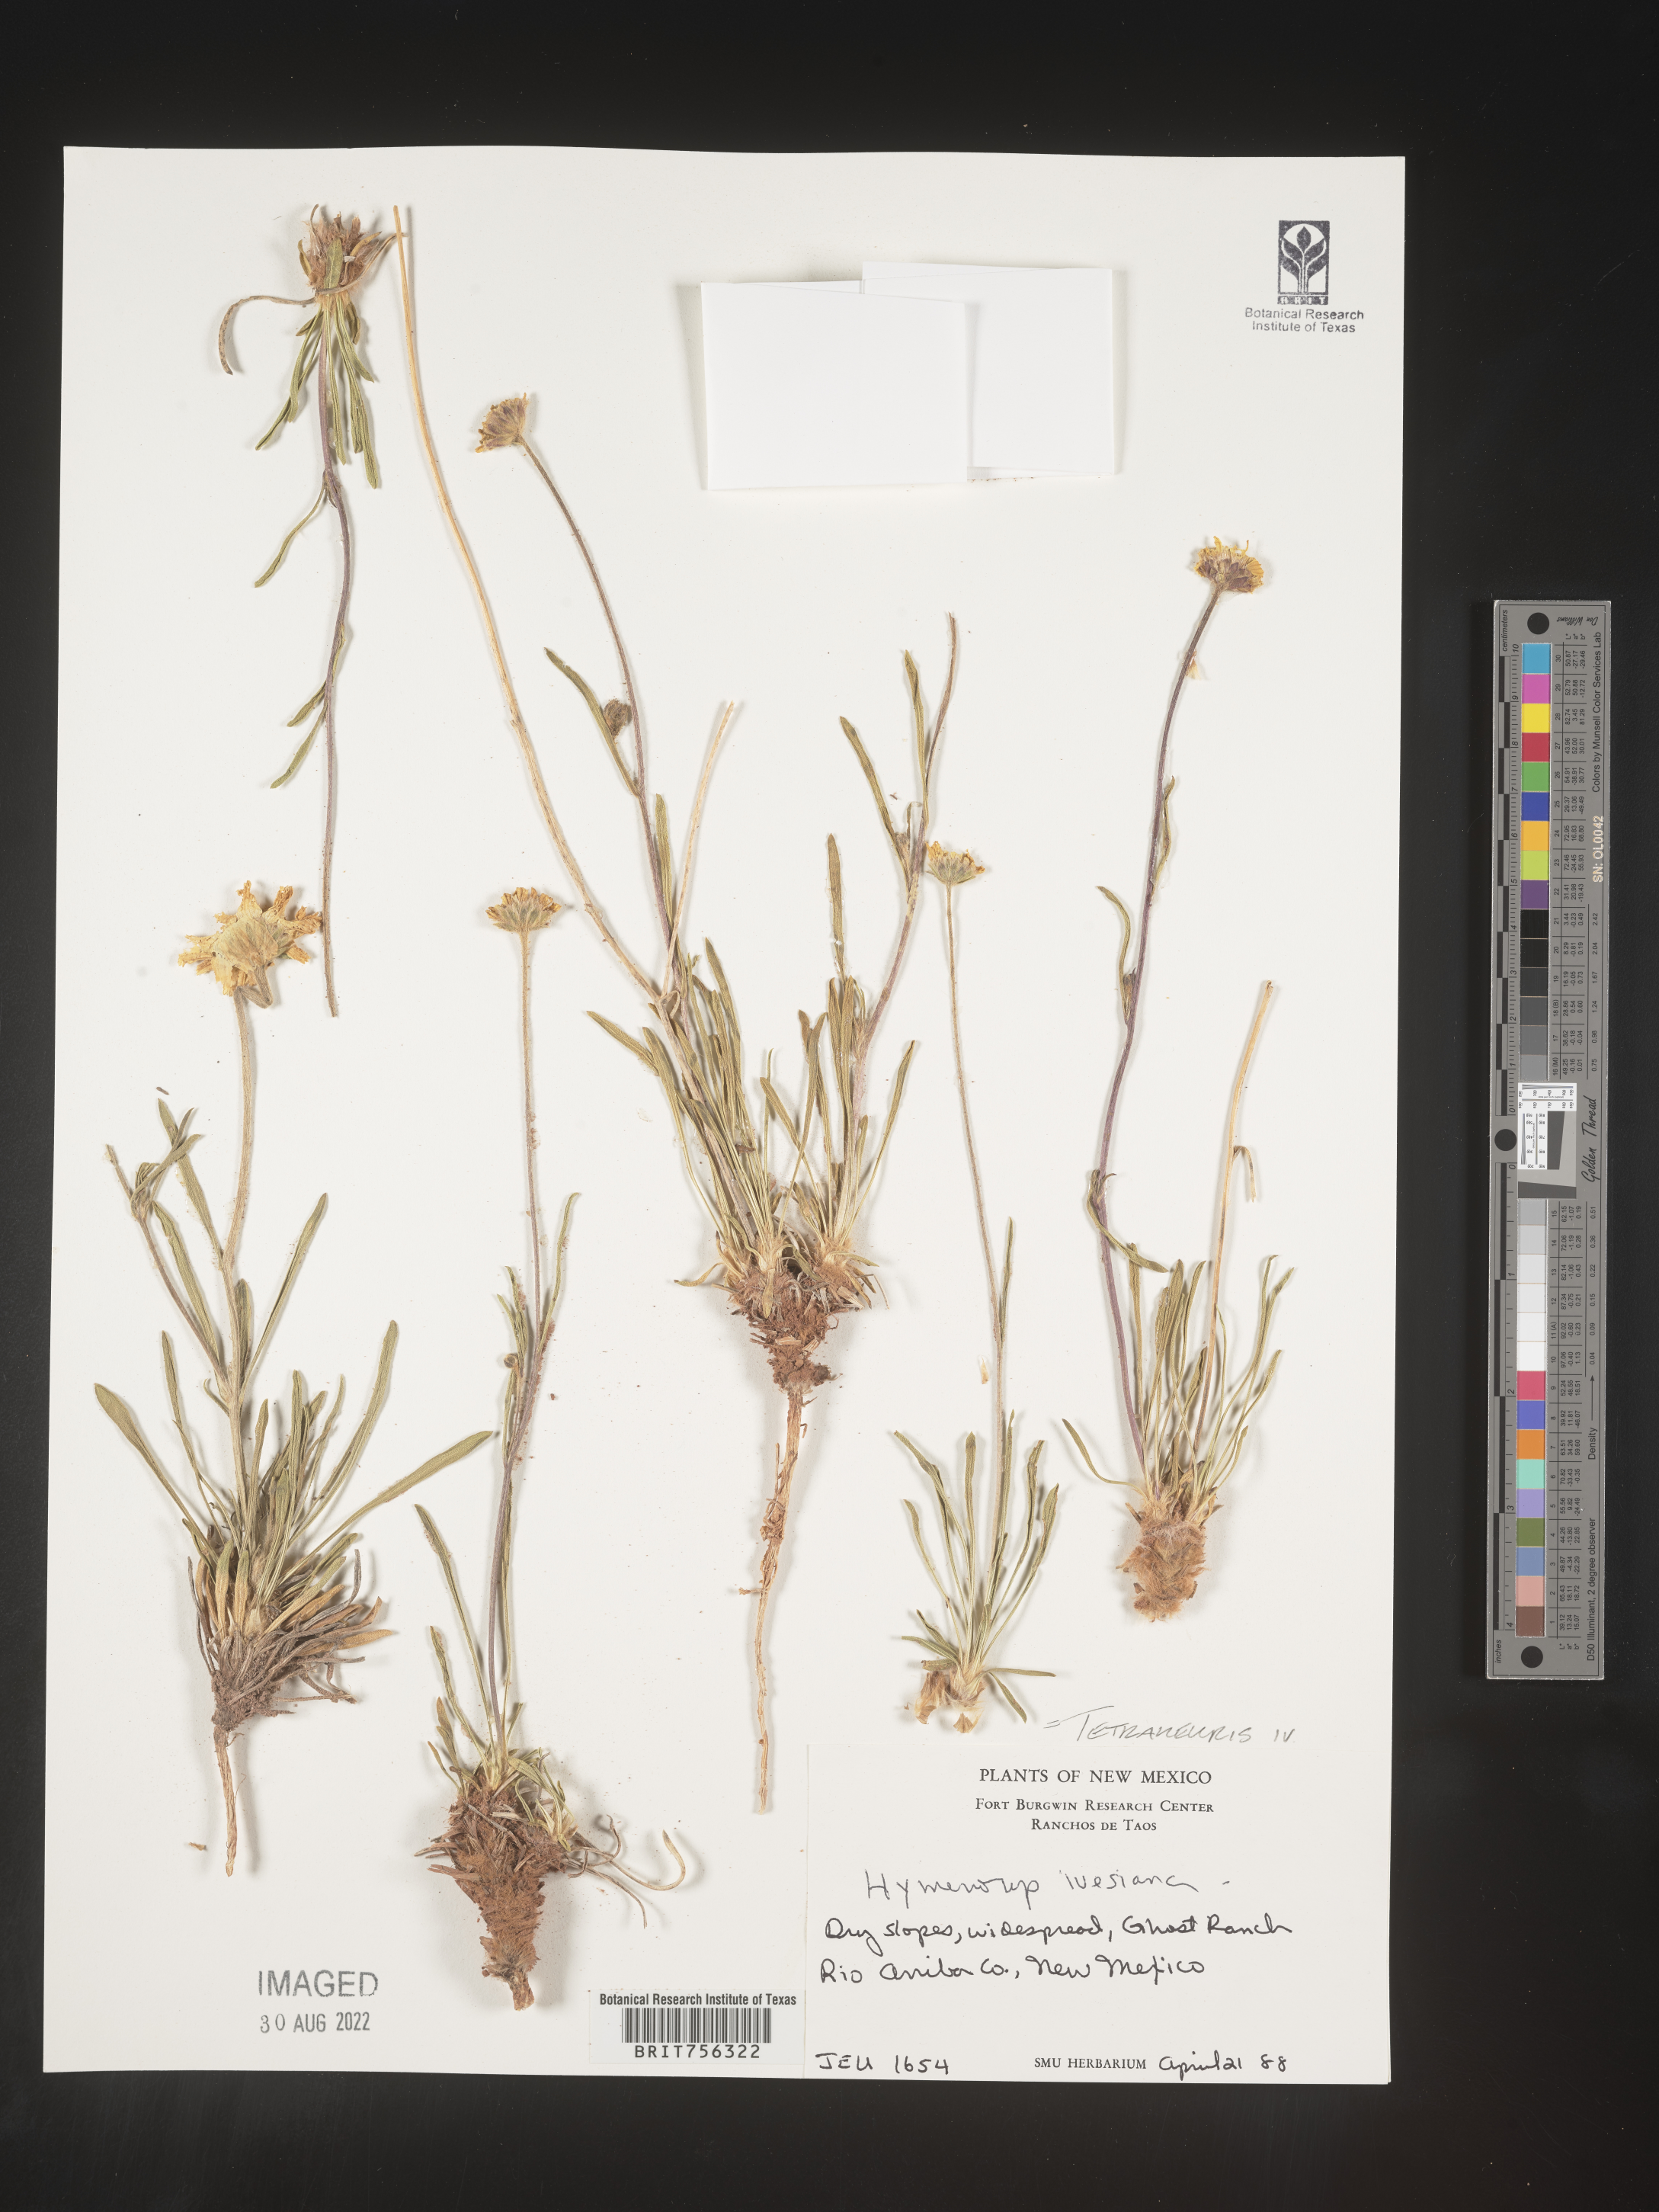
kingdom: Plantae
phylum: Tracheophyta
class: Magnoliopsida
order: Asterales
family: Asteraceae
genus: Tetraneuris
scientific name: Tetraneuris ivesiana
